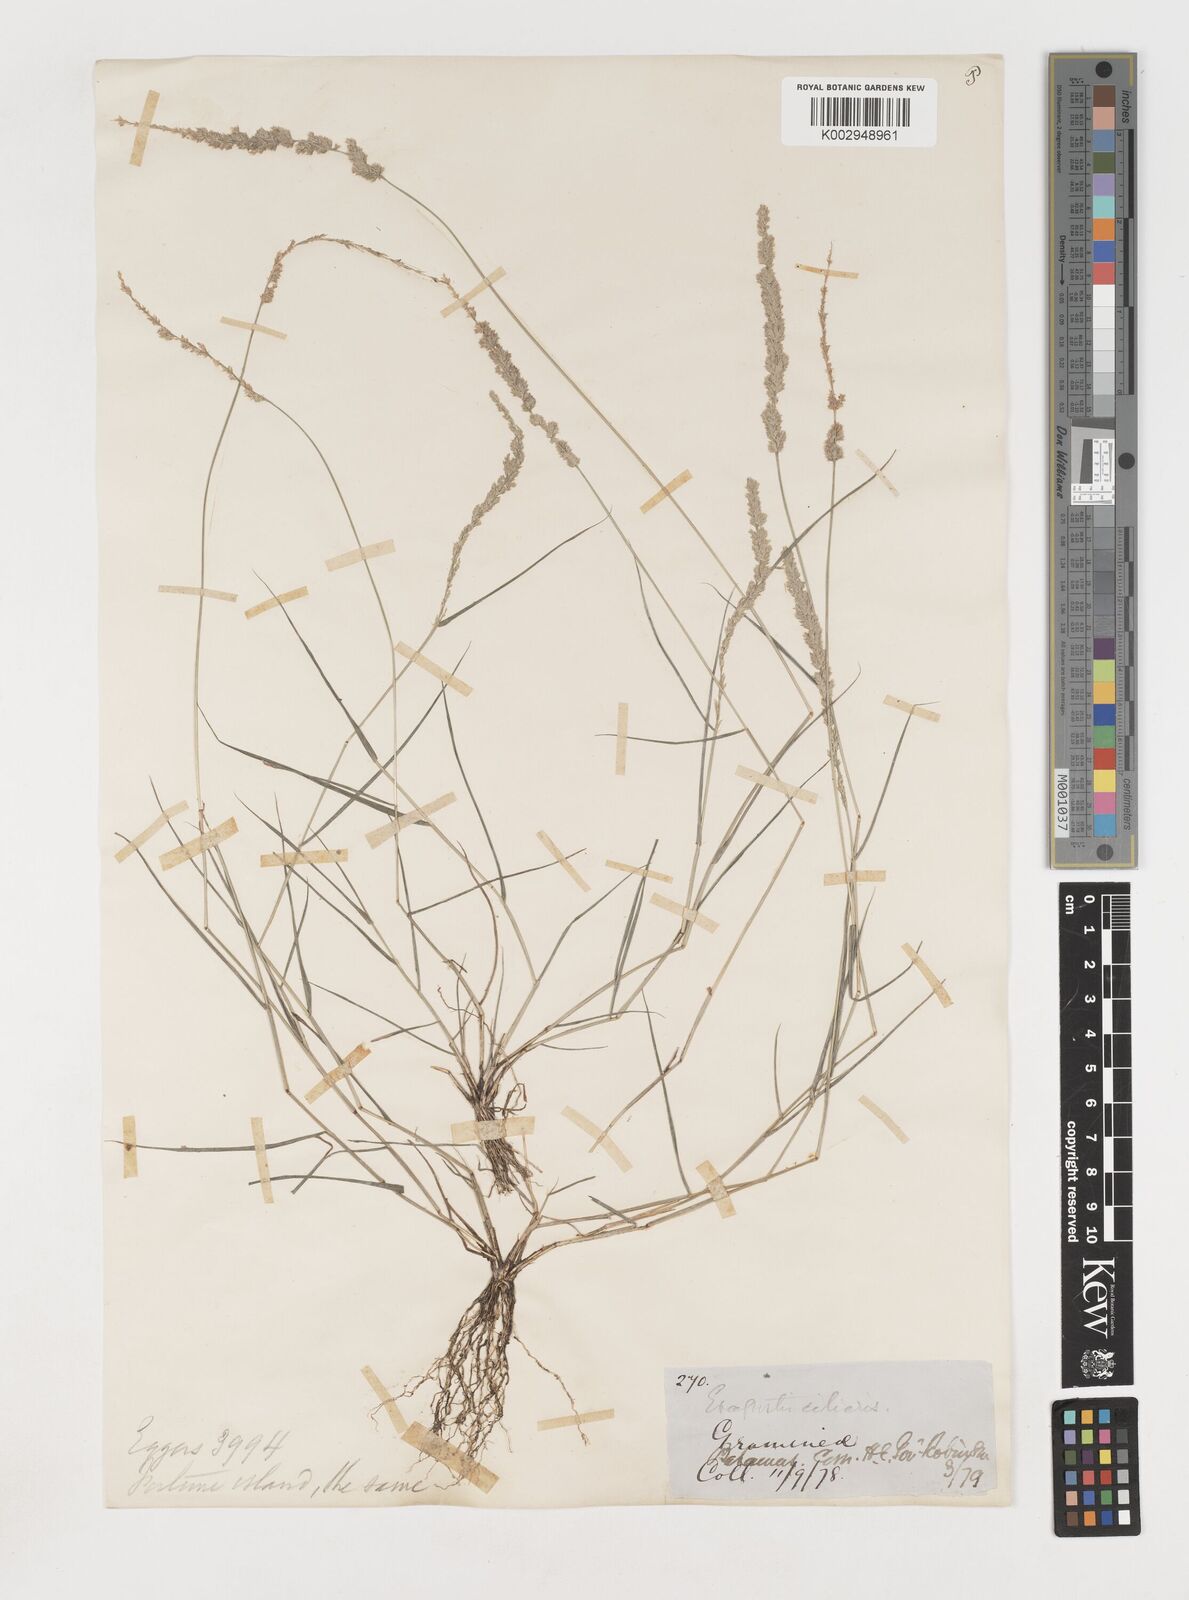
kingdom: Plantae
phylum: Tracheophyta
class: Liliopsida
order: Poales
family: Poaceae
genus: Eragrostis
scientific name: Eragrostis ciliaris
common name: Gophertail lovegrass
